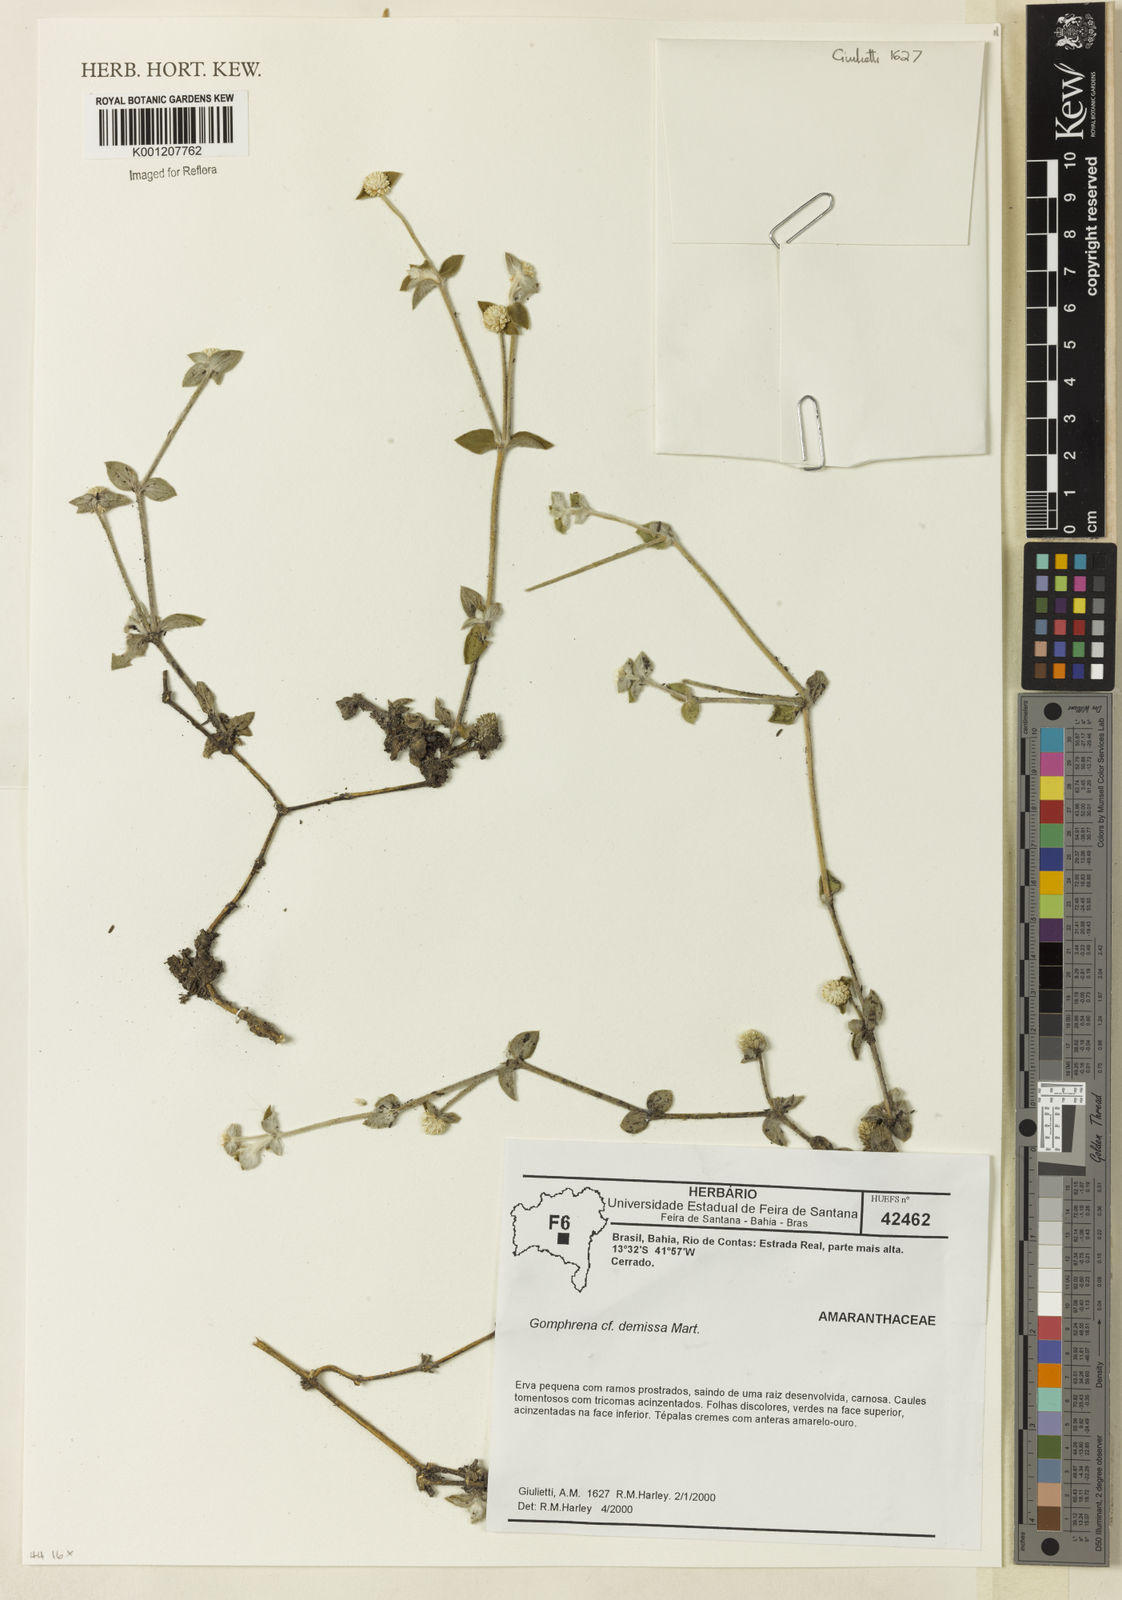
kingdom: Plantae
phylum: Tracheophyta
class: Magnoliopsida
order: Caryophyllales
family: Amaranthaceae
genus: Gomphrena
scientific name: Gomphrena demissa
